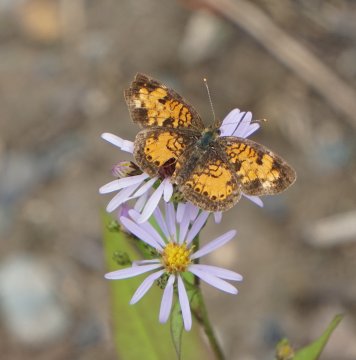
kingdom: Animalia
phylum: Arthropoda
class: Insecta
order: Lepidoptera
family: Nymphalidae
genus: Phyciodes
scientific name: Phyciodes tharos
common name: Northern Crescent
